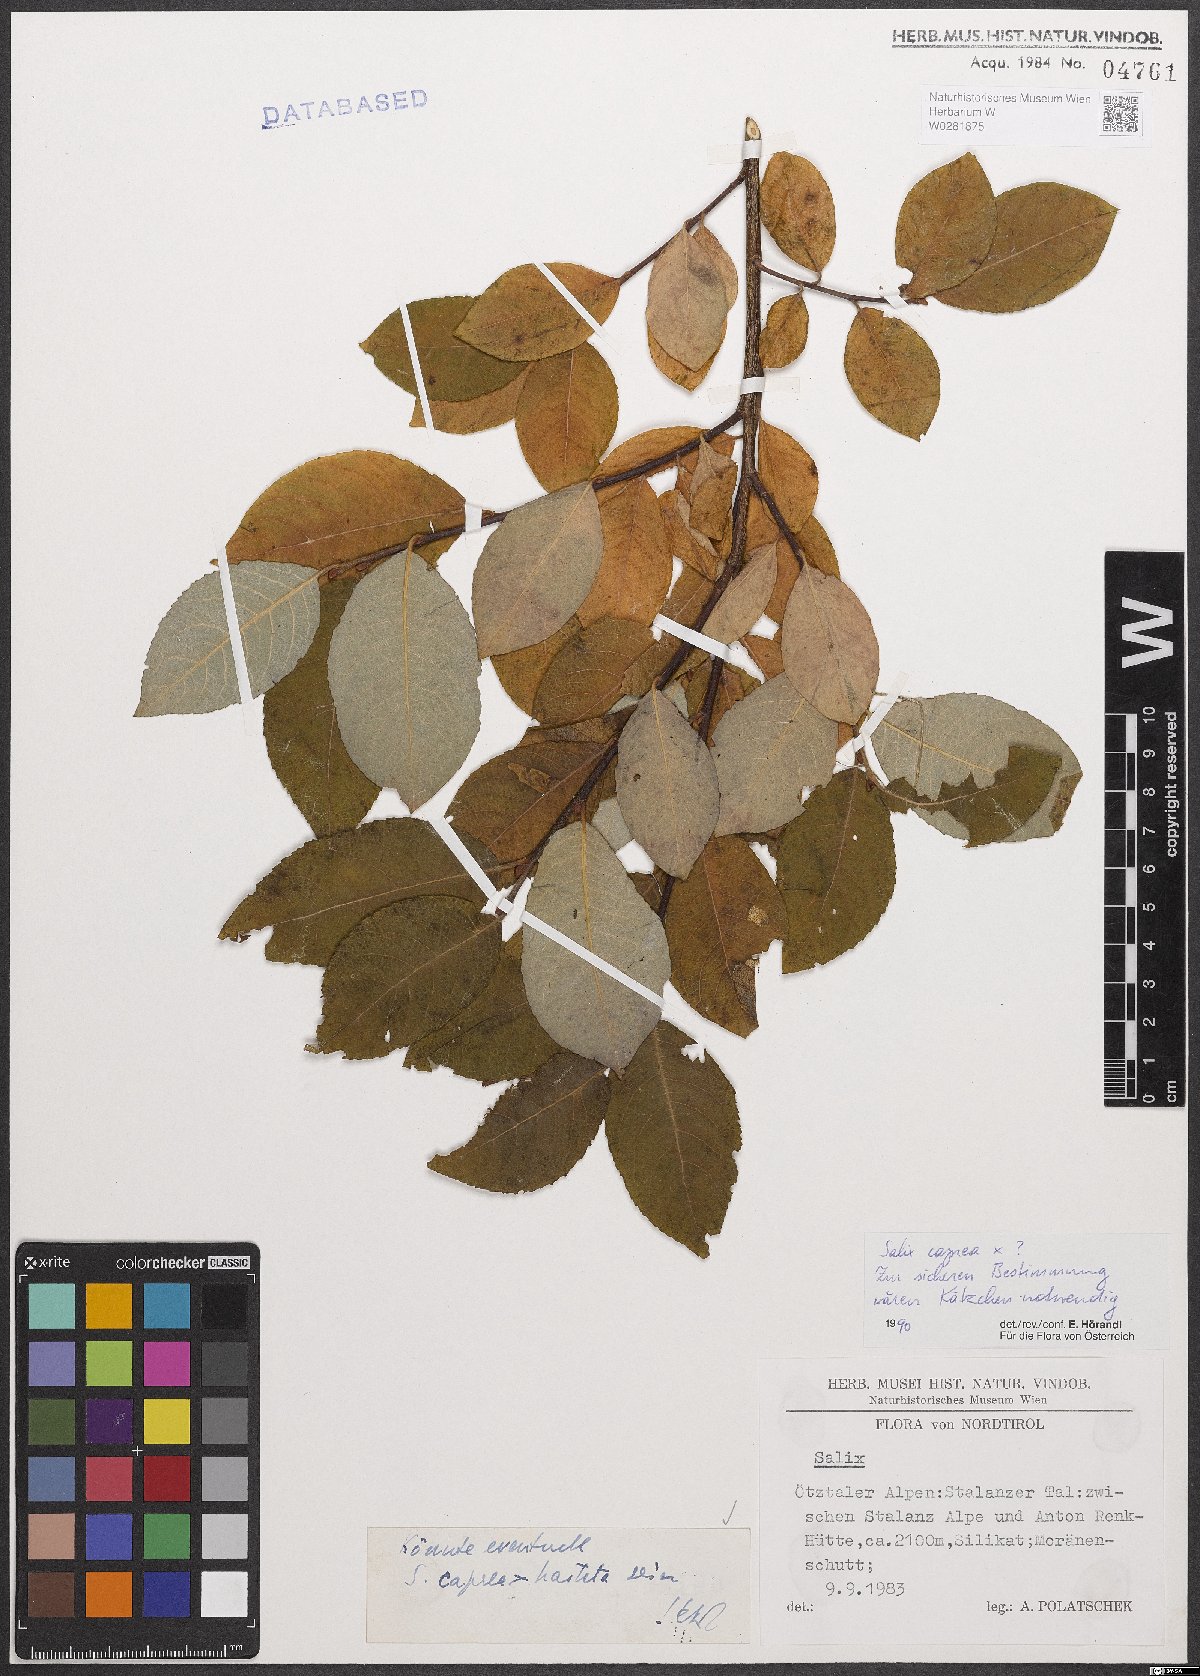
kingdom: Plantae
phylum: Tracheophyta
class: Magnoliopsida
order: Malpighiales
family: Salicaceae
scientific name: Salicaceae
